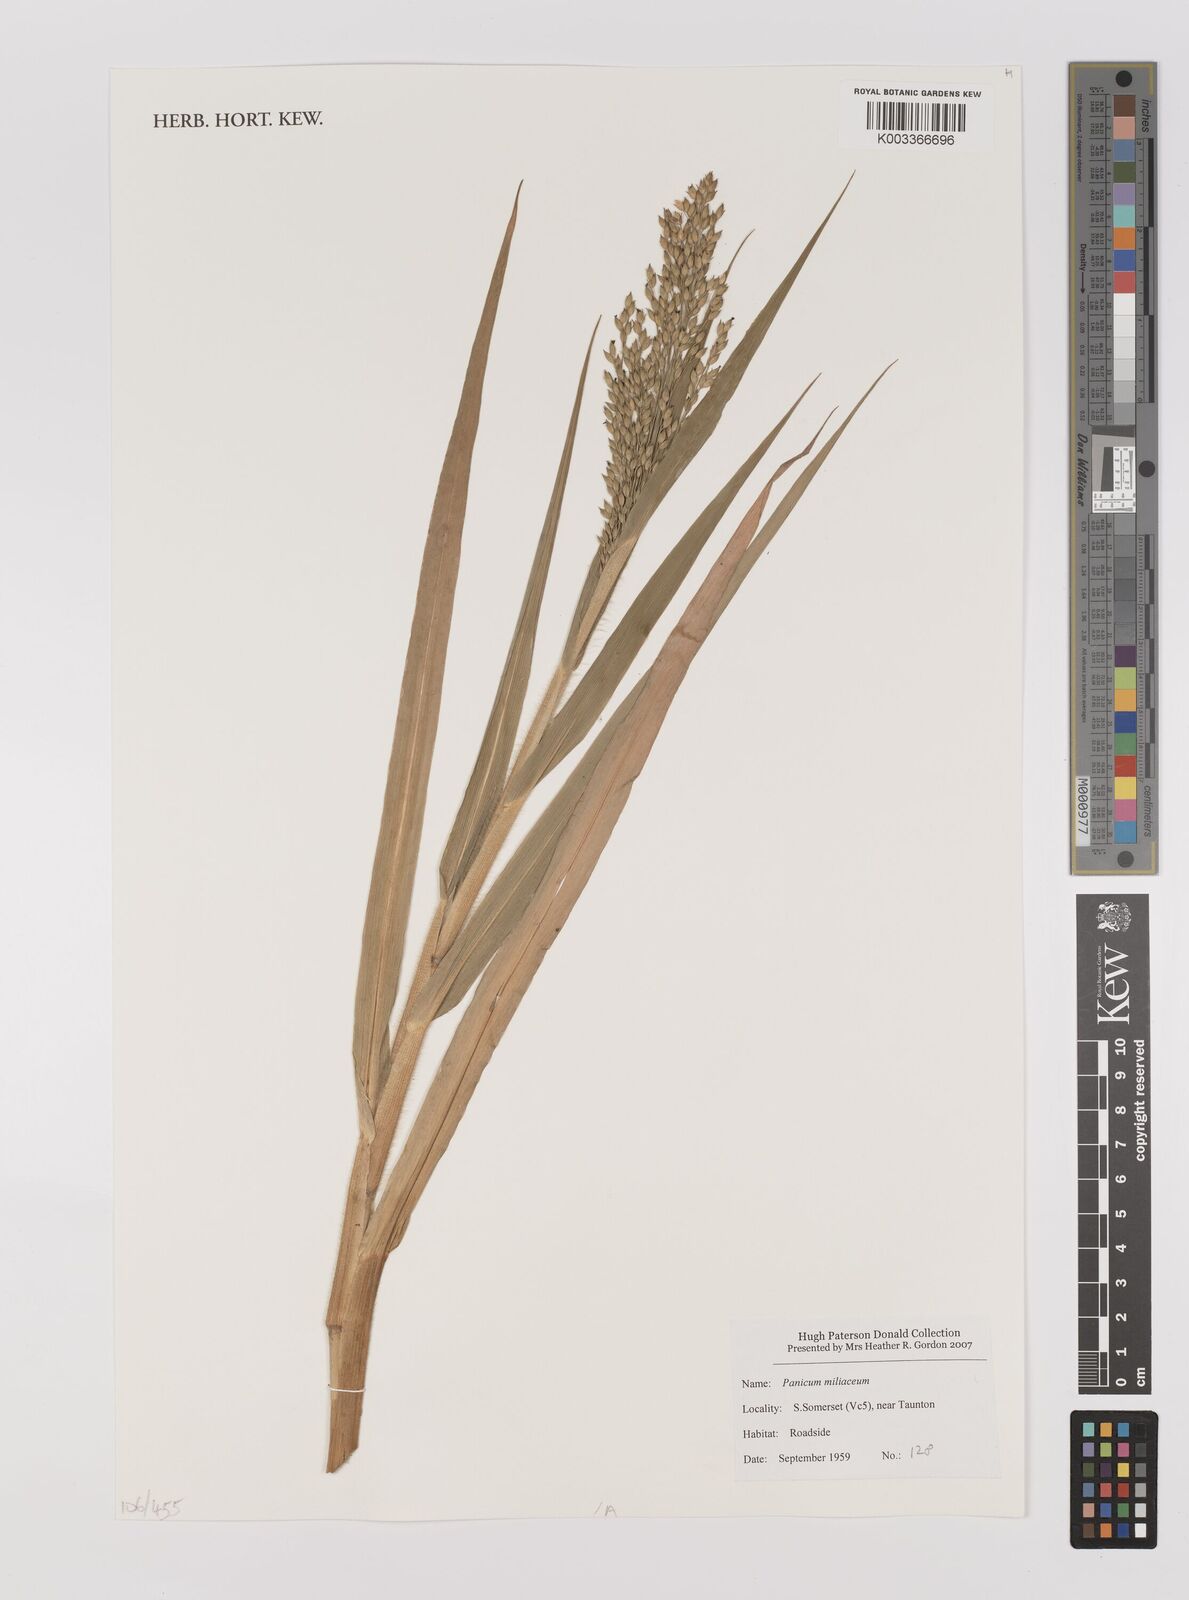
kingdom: Plantae
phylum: Tracheophyta
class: Liliopsida
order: Poales
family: Poaceae
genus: Panicum
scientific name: Panicum miliaceum
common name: Common millet
